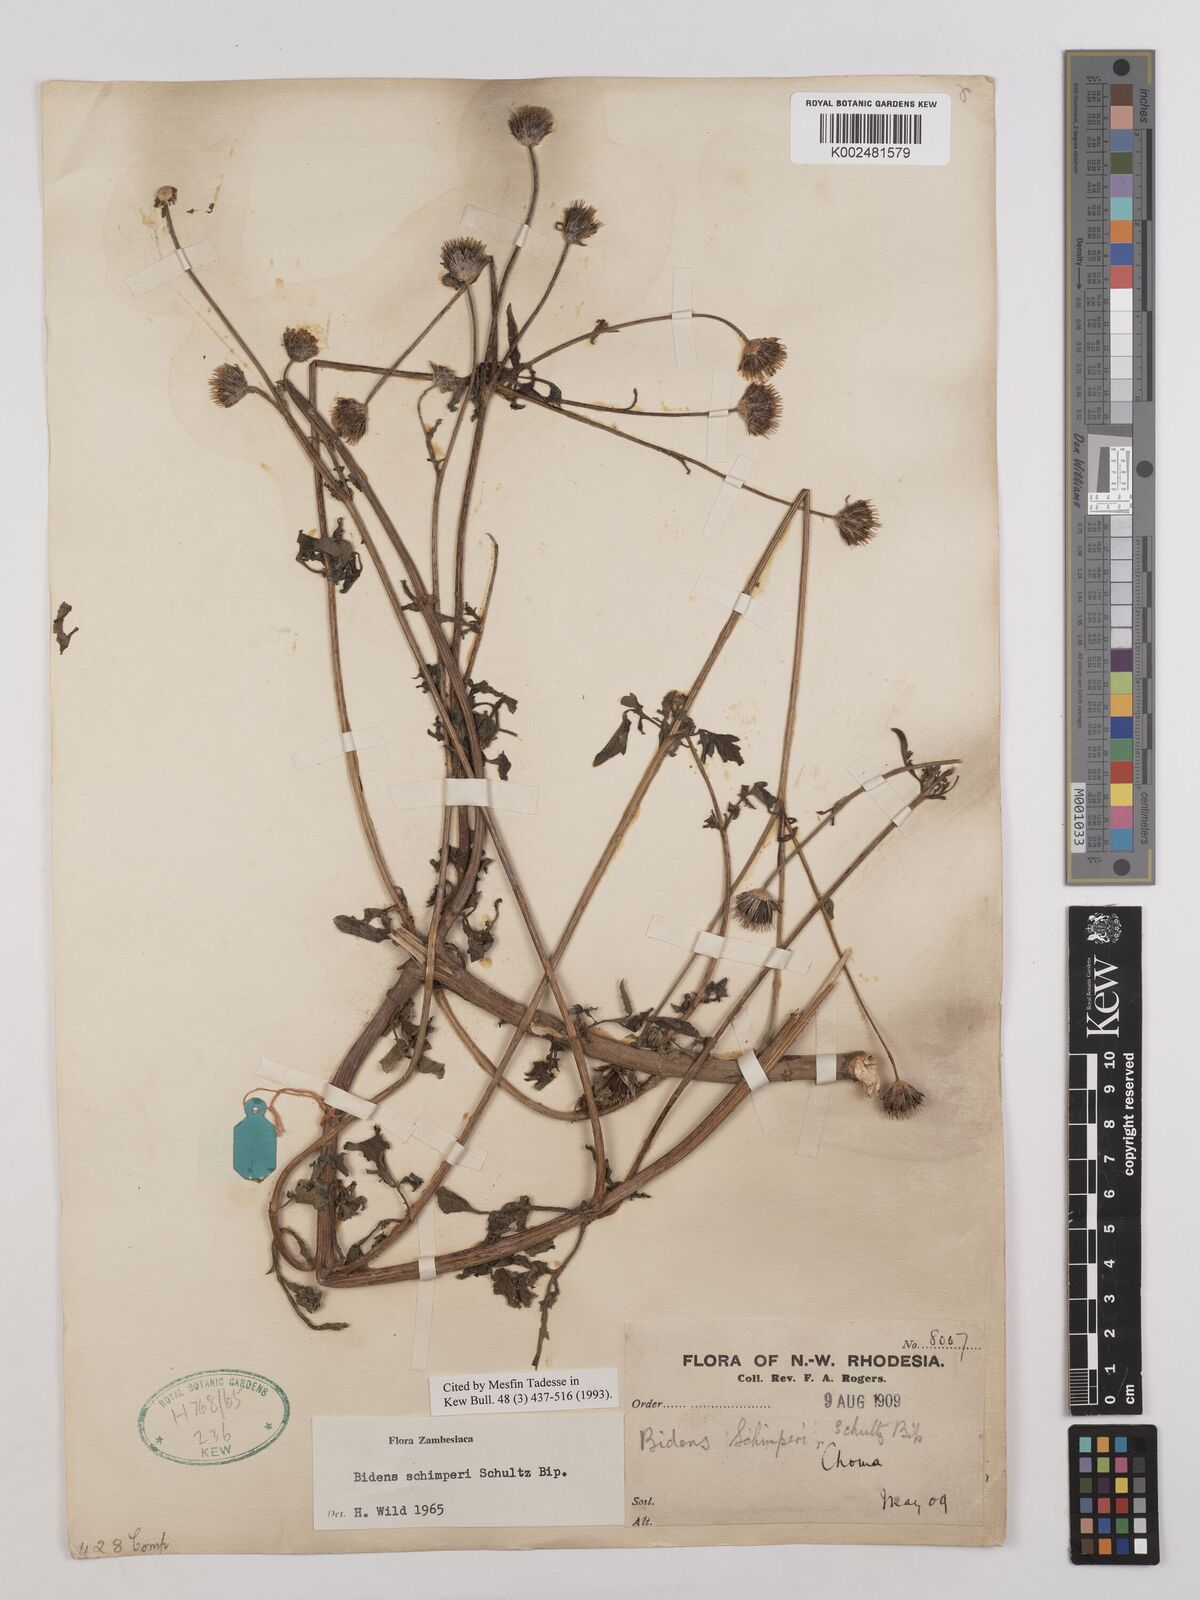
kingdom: Plantae
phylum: Tracheophyta
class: Magnoliopsida
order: Asterales
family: Asteraceae
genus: Bidens
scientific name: Bidens schimperi
